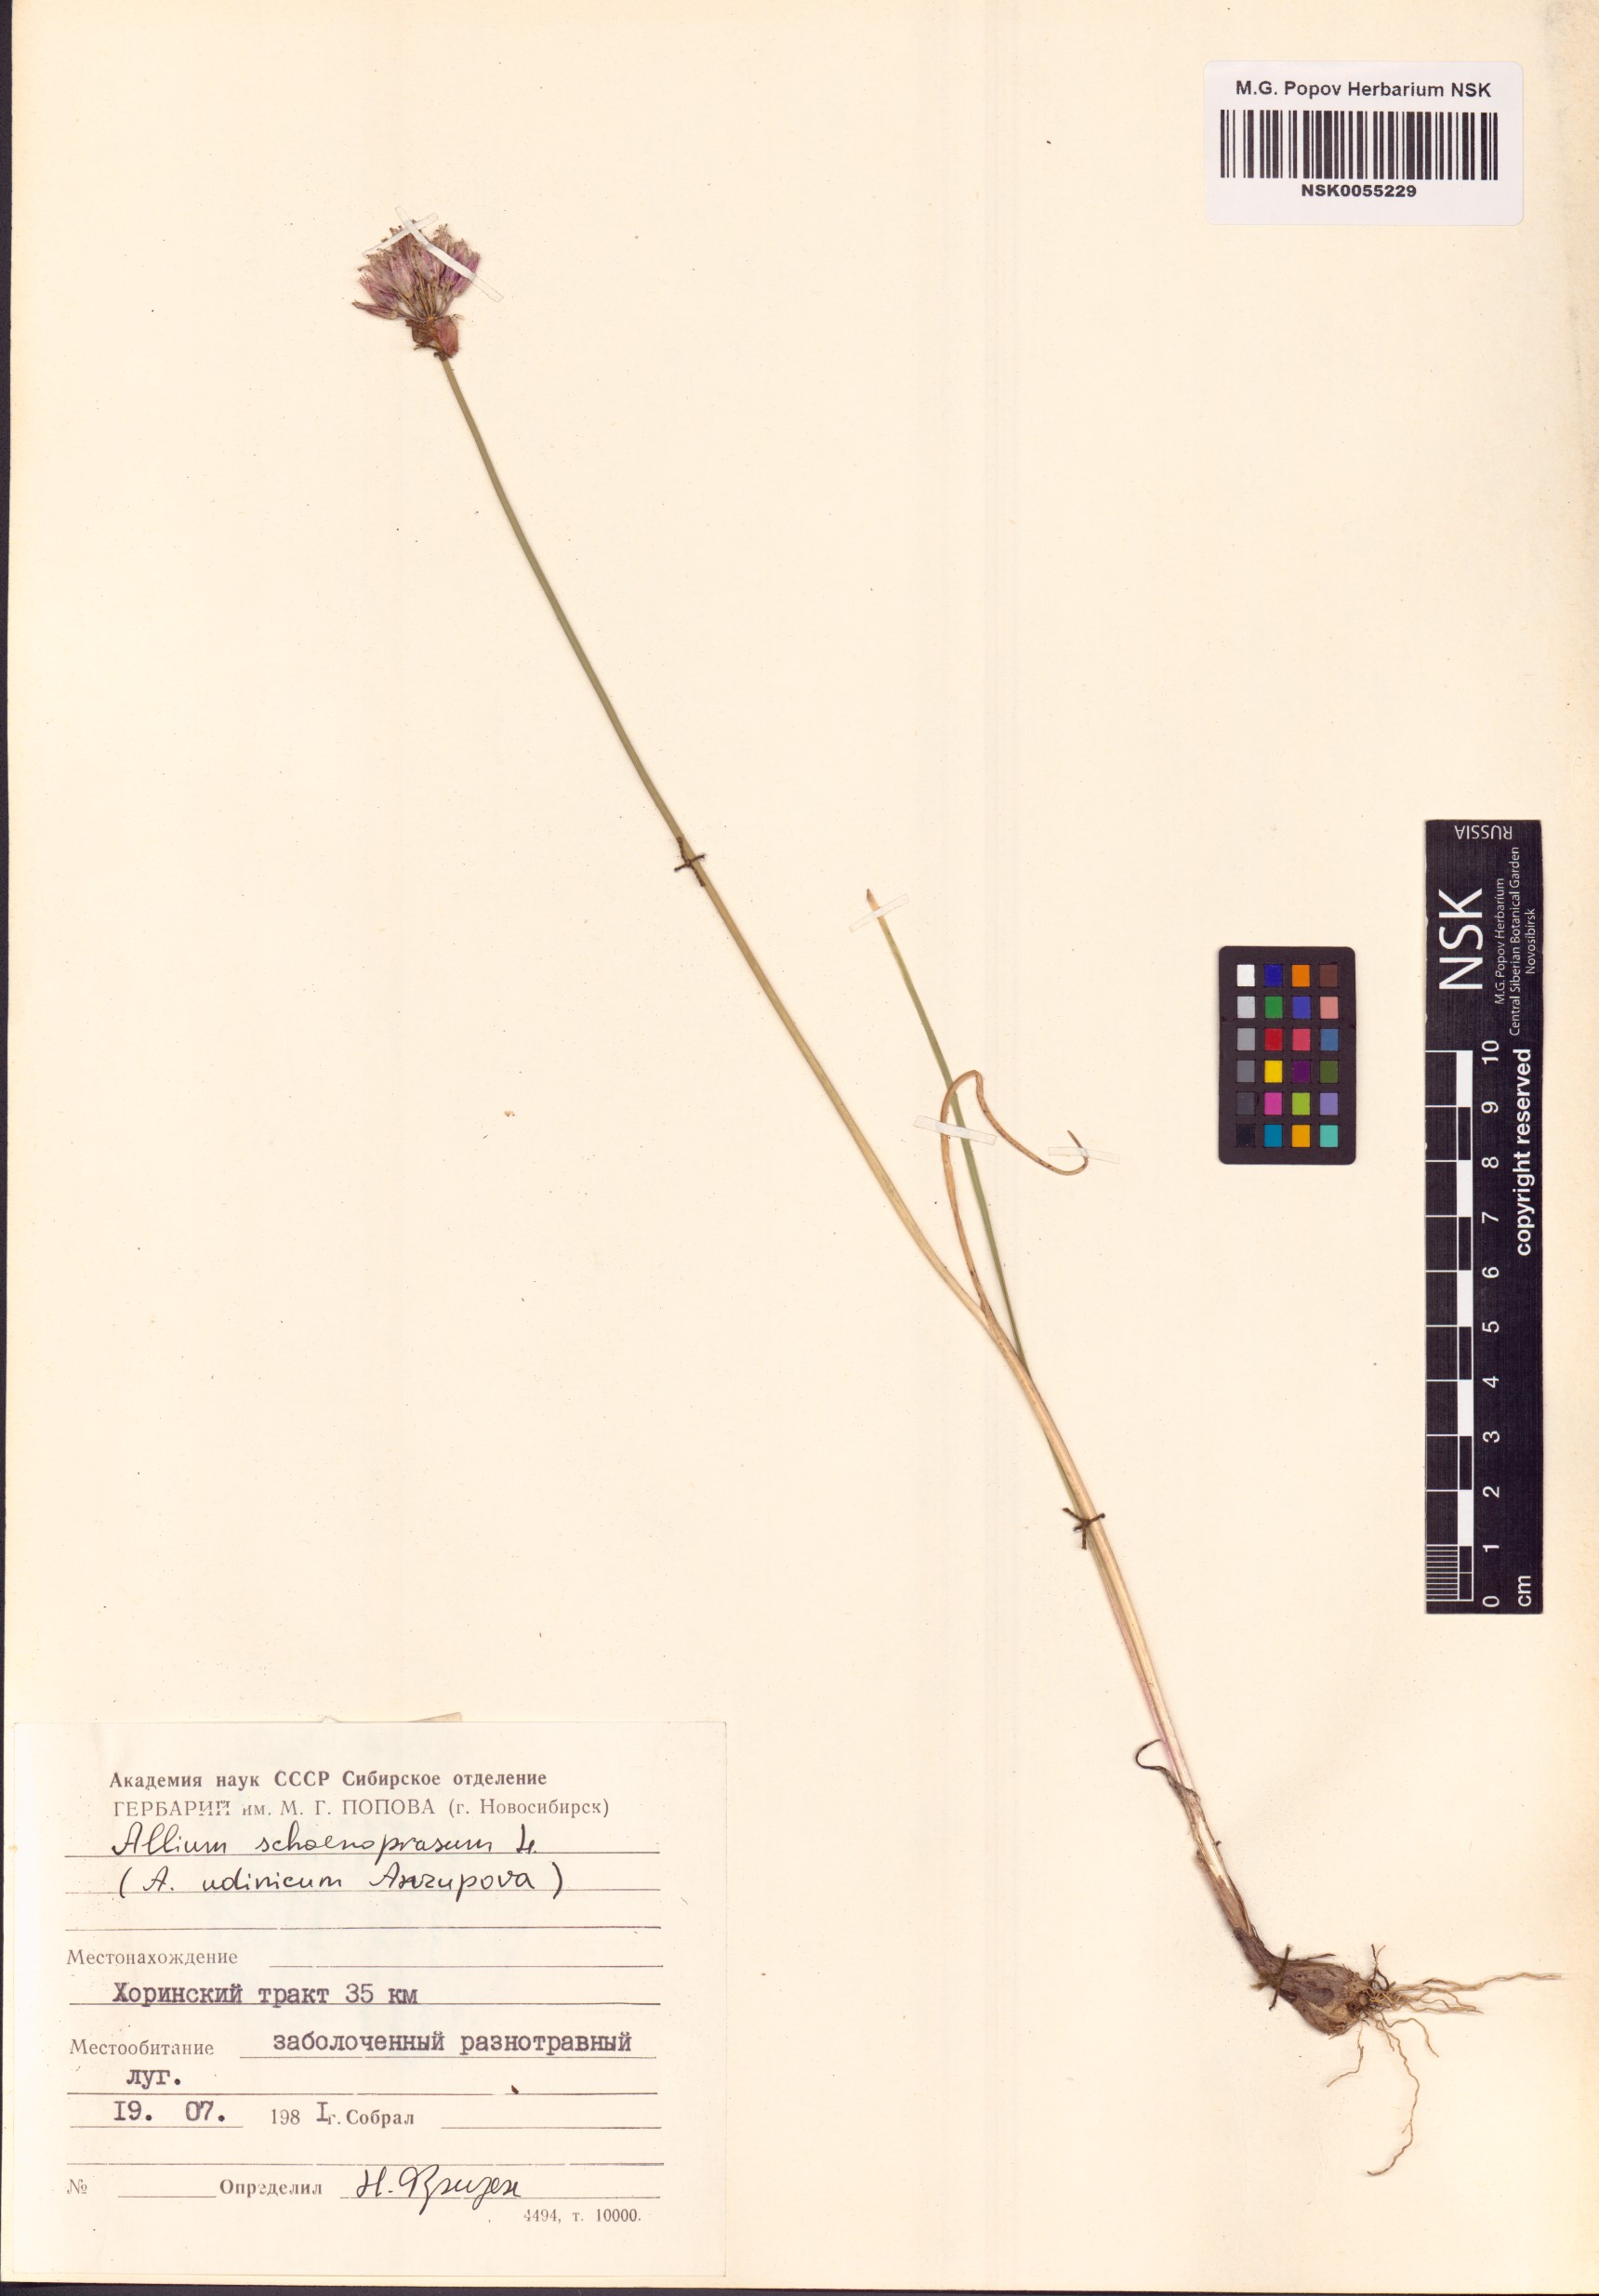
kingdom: Plantae
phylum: Tracheophyta
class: Liliopsida
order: Asparagales
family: Amaryllidaceae
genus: Allium
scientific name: Allium schoenoprasum
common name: Chives
